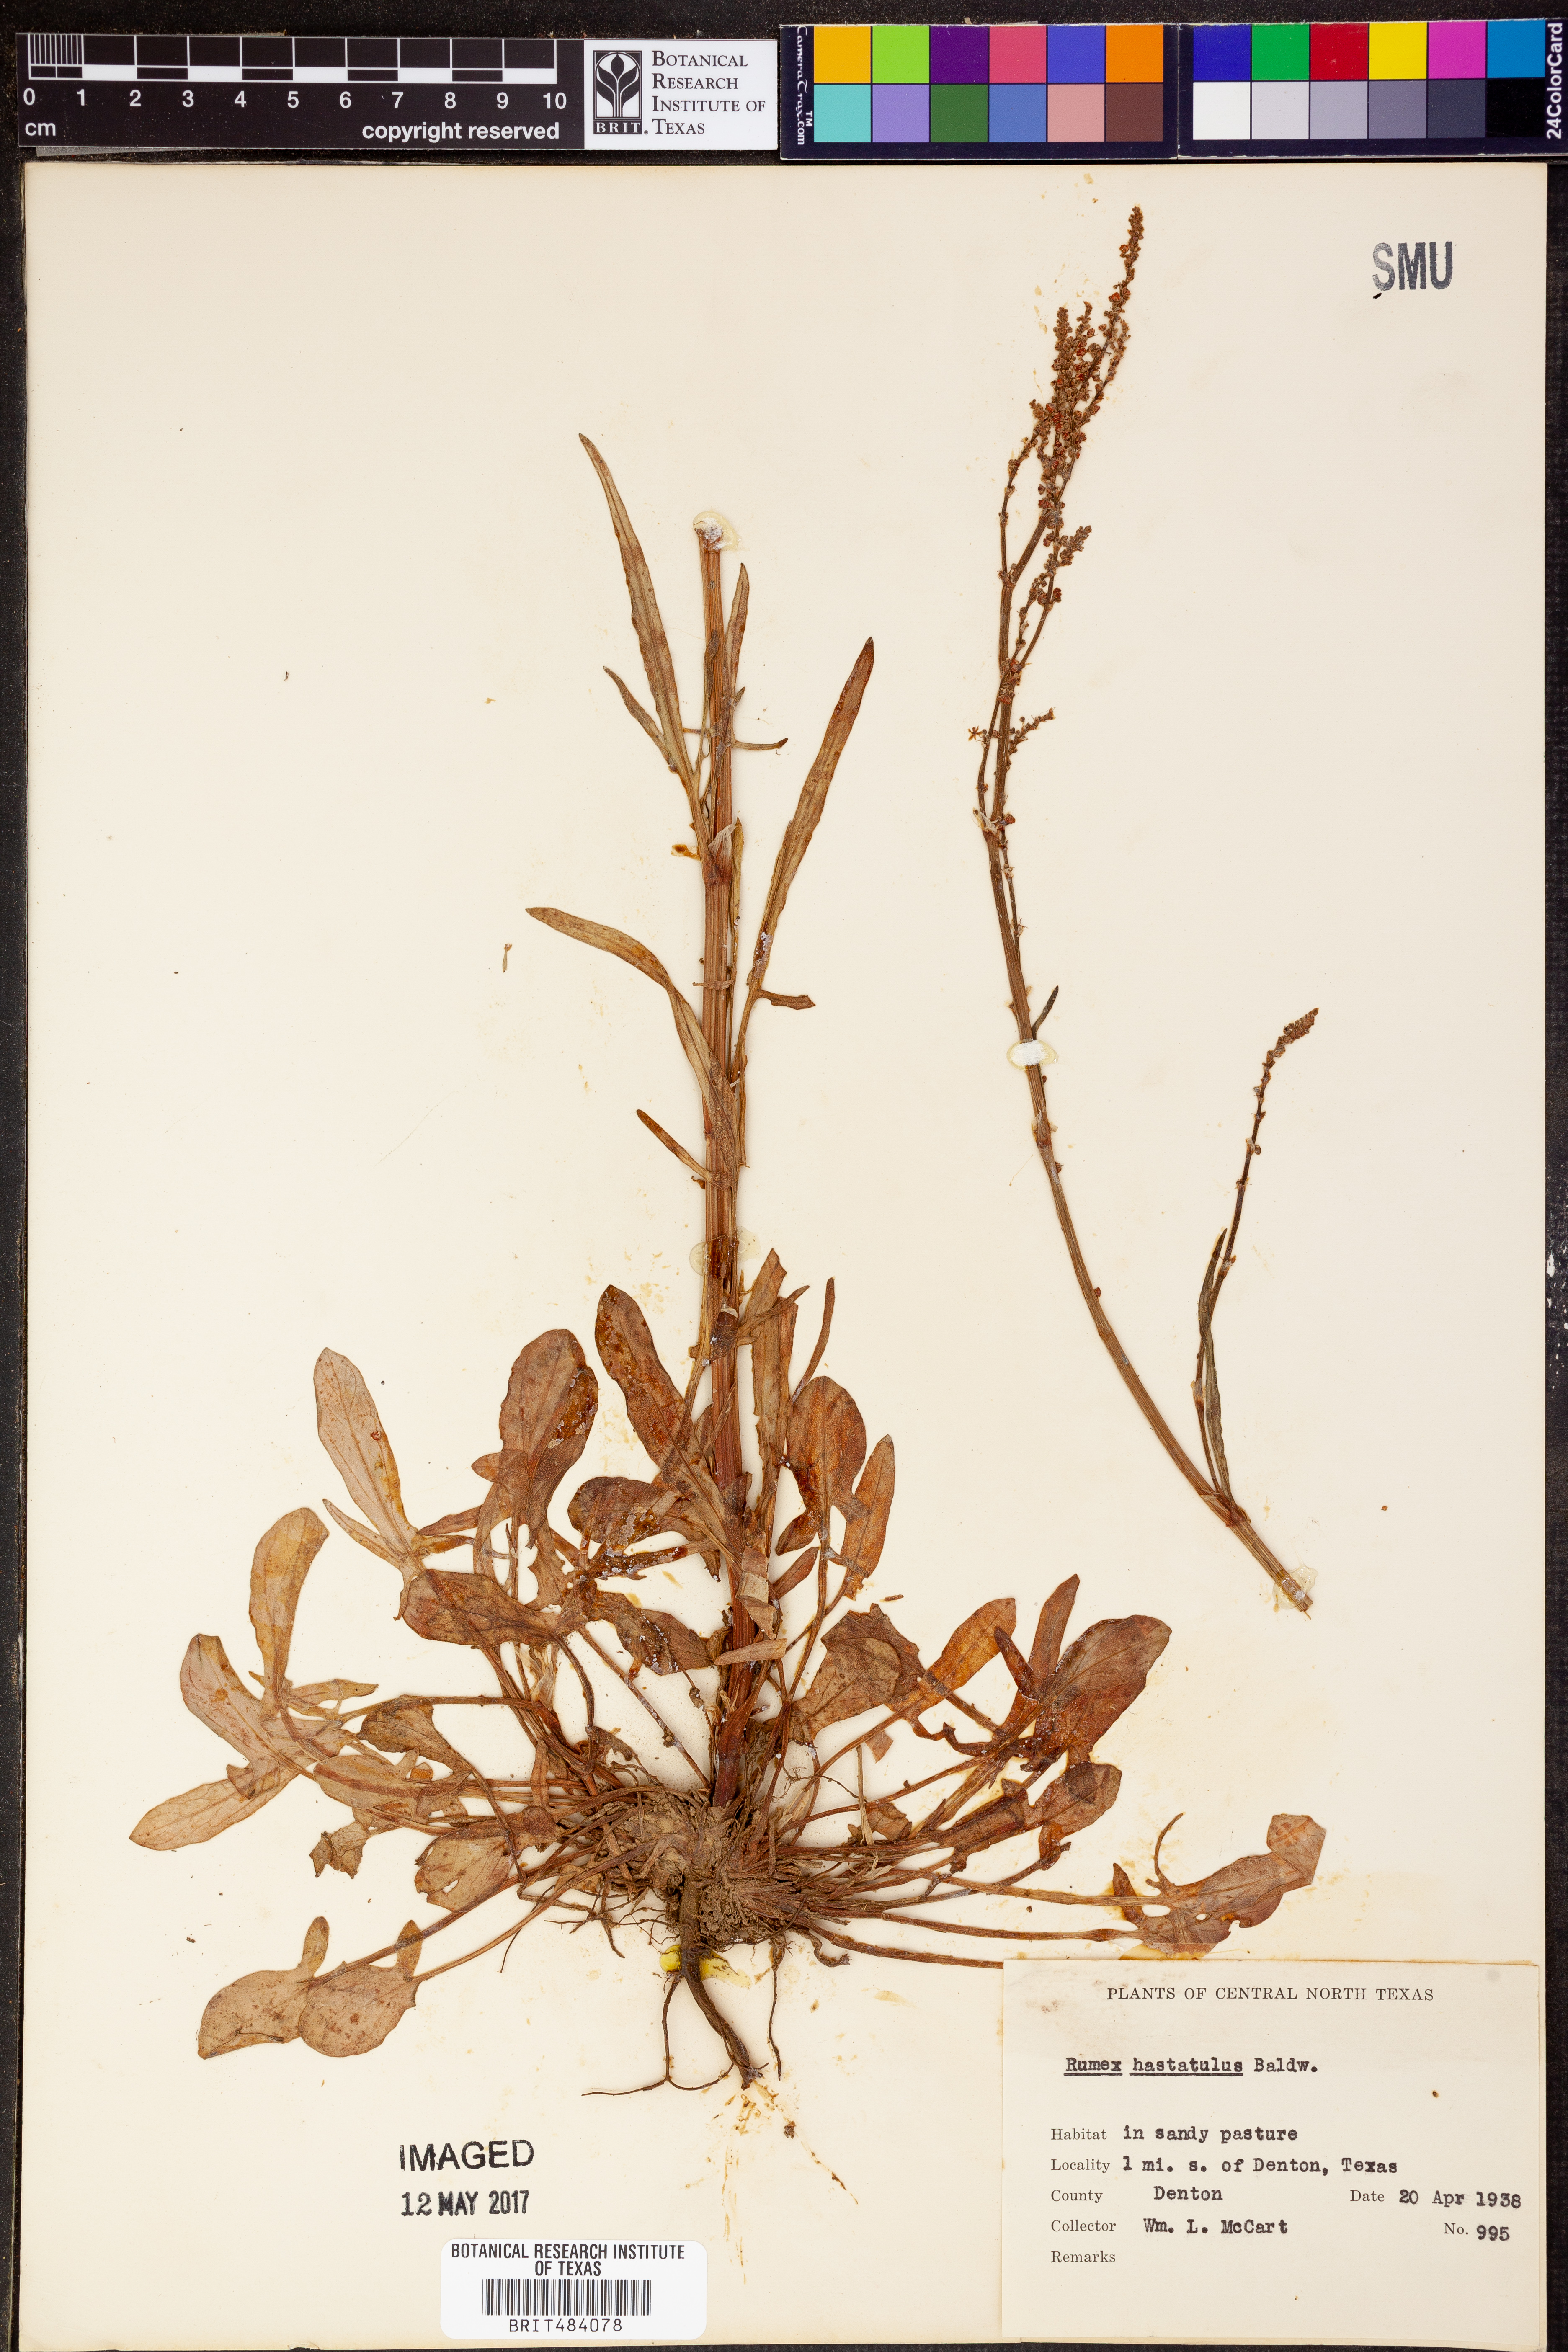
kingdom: Plantae
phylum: Tracheophyta
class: Magnoliopsida
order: Caryophyllales
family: Polygonaceae
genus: Rumex
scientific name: Rumex hastatulus
